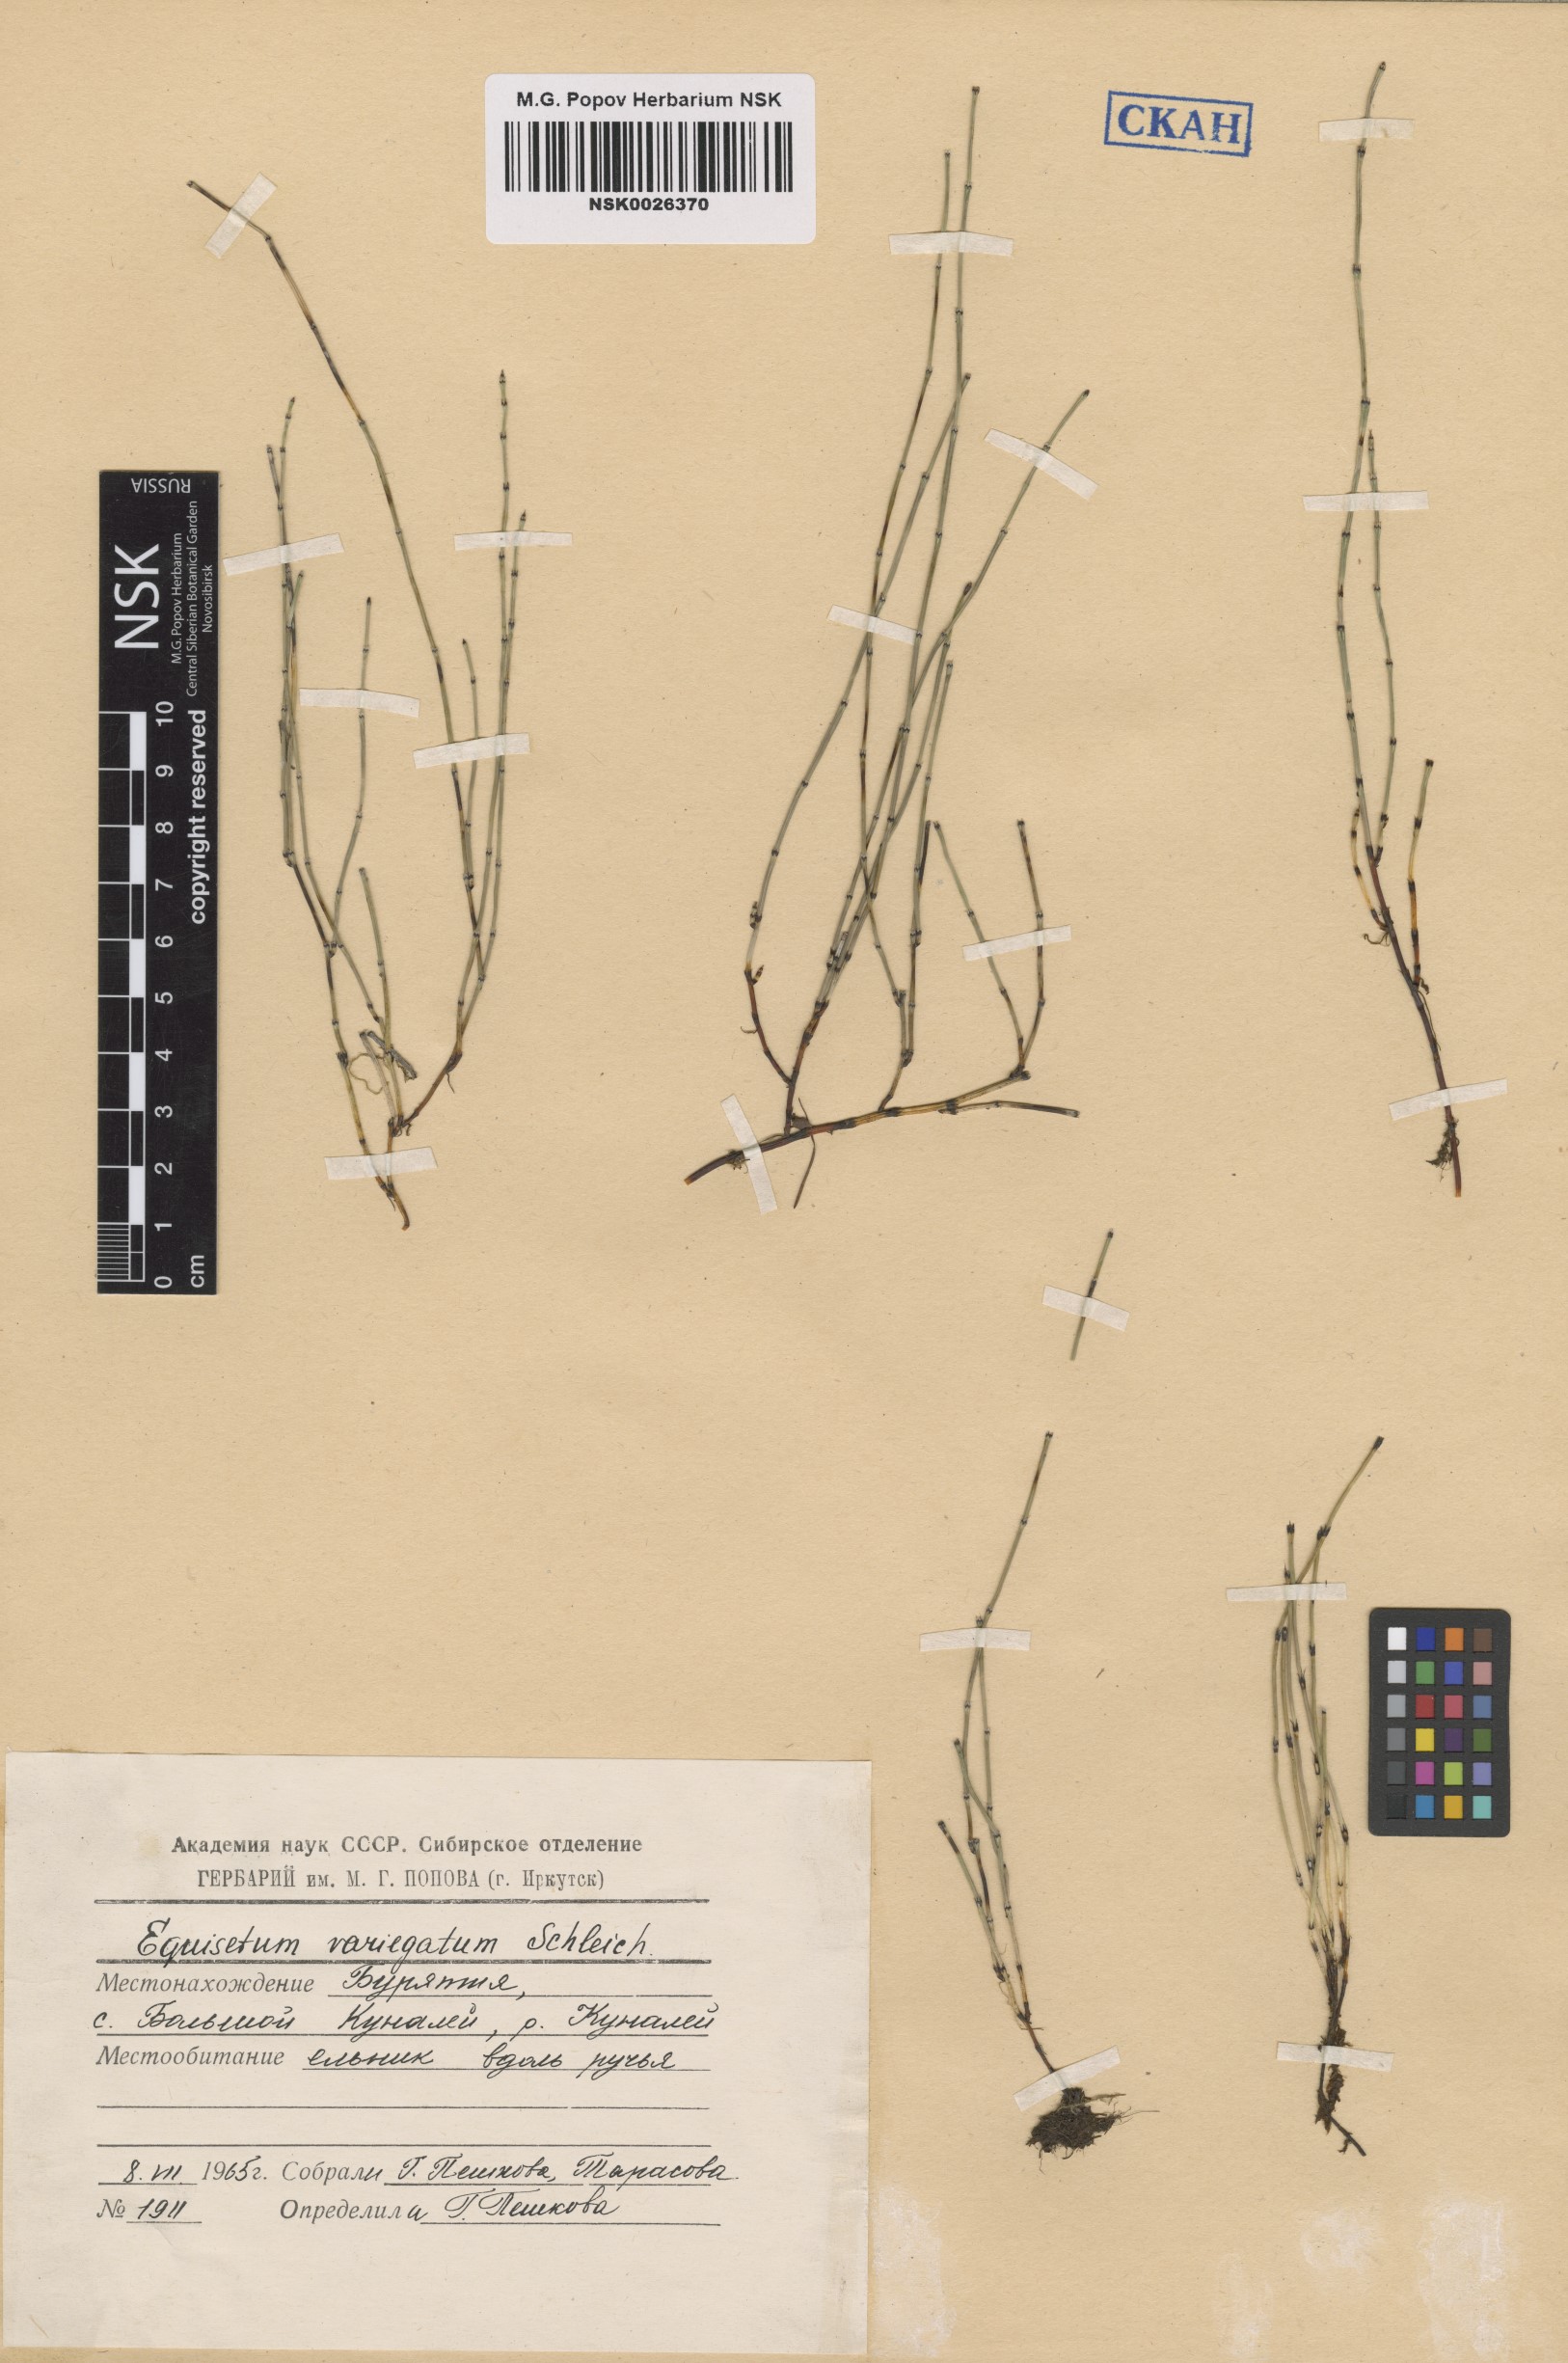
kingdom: Plantae
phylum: Tracheophyta
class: Polypodiopsida
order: Equisetales
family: Equisetaceae
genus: Equisetum
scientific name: Equisetum variegatum
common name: Variegated horsetail
